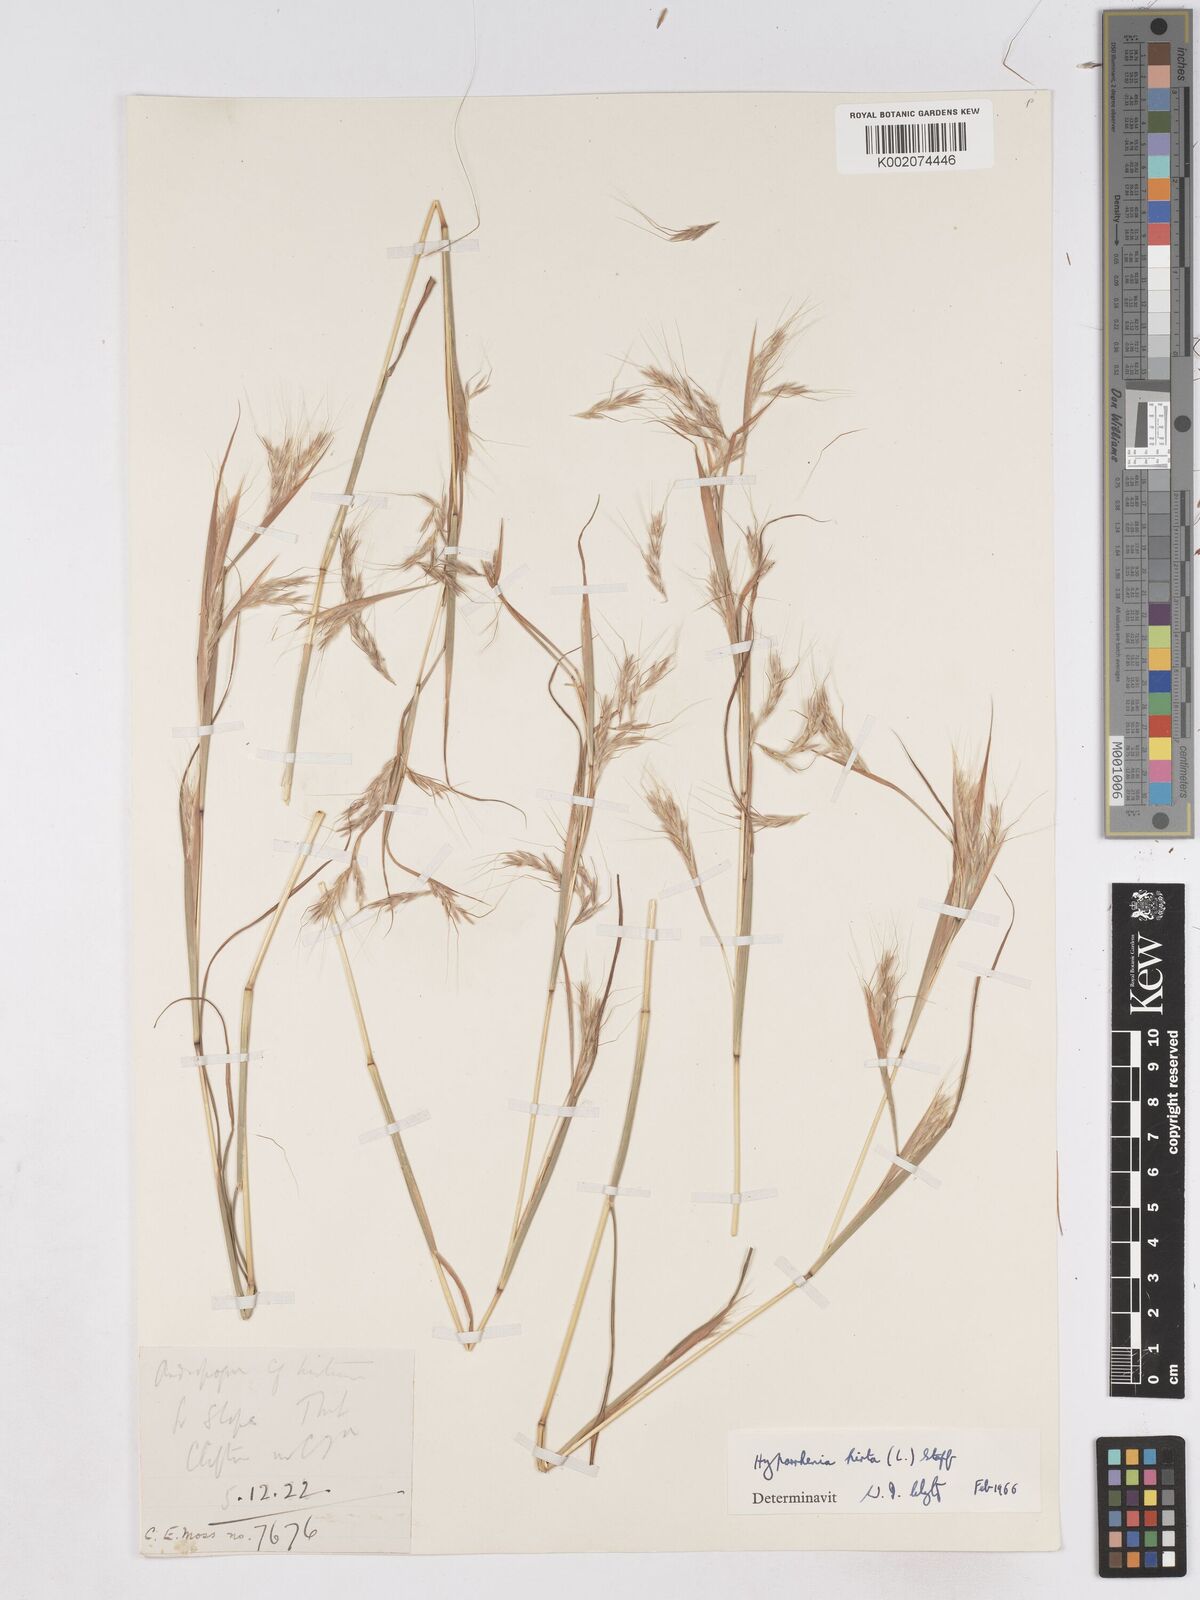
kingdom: Plantae
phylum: Tracheophyta
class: Liliopsida
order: Poales
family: Poaceae
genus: Hyparrhenia
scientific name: Hyparrhenia hirta
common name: Thatching grass
